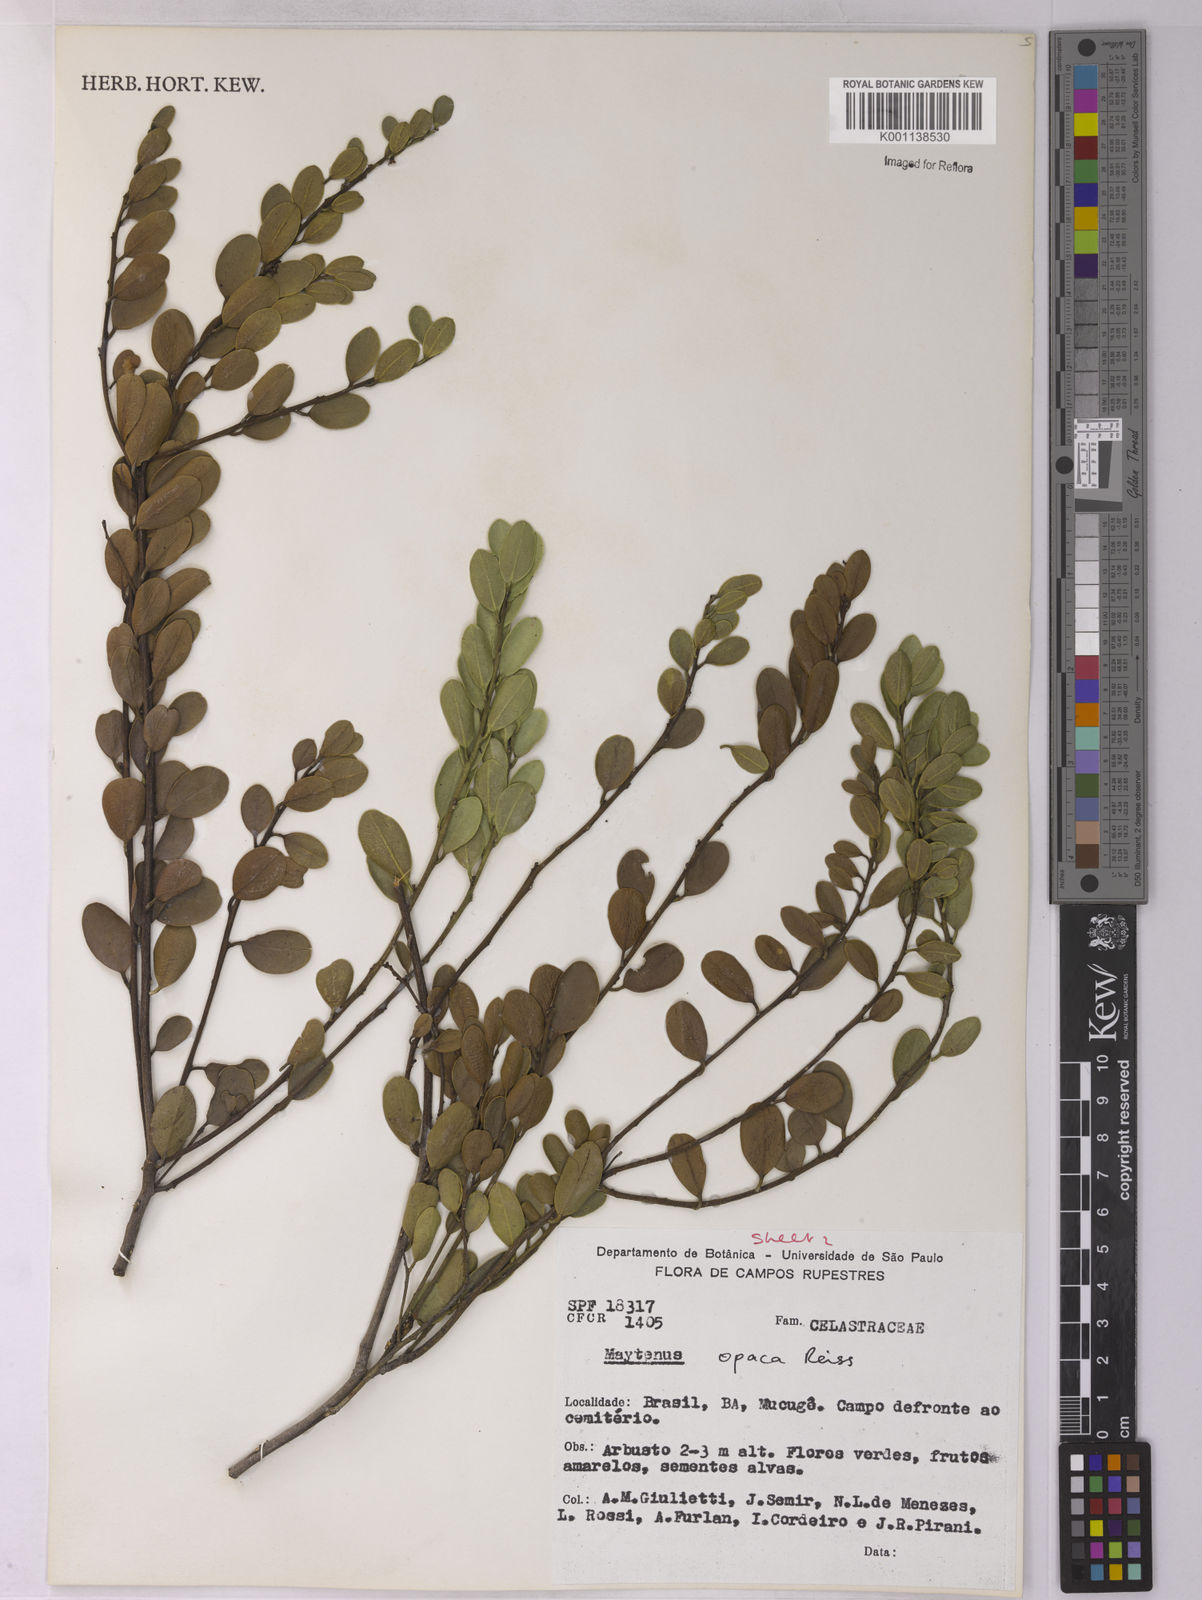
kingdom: Plantae
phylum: Tracheophyta
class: Magnoliopsida
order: Celastrales
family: Celastraceae
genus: Monteverdia
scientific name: Monteverdia opaca
